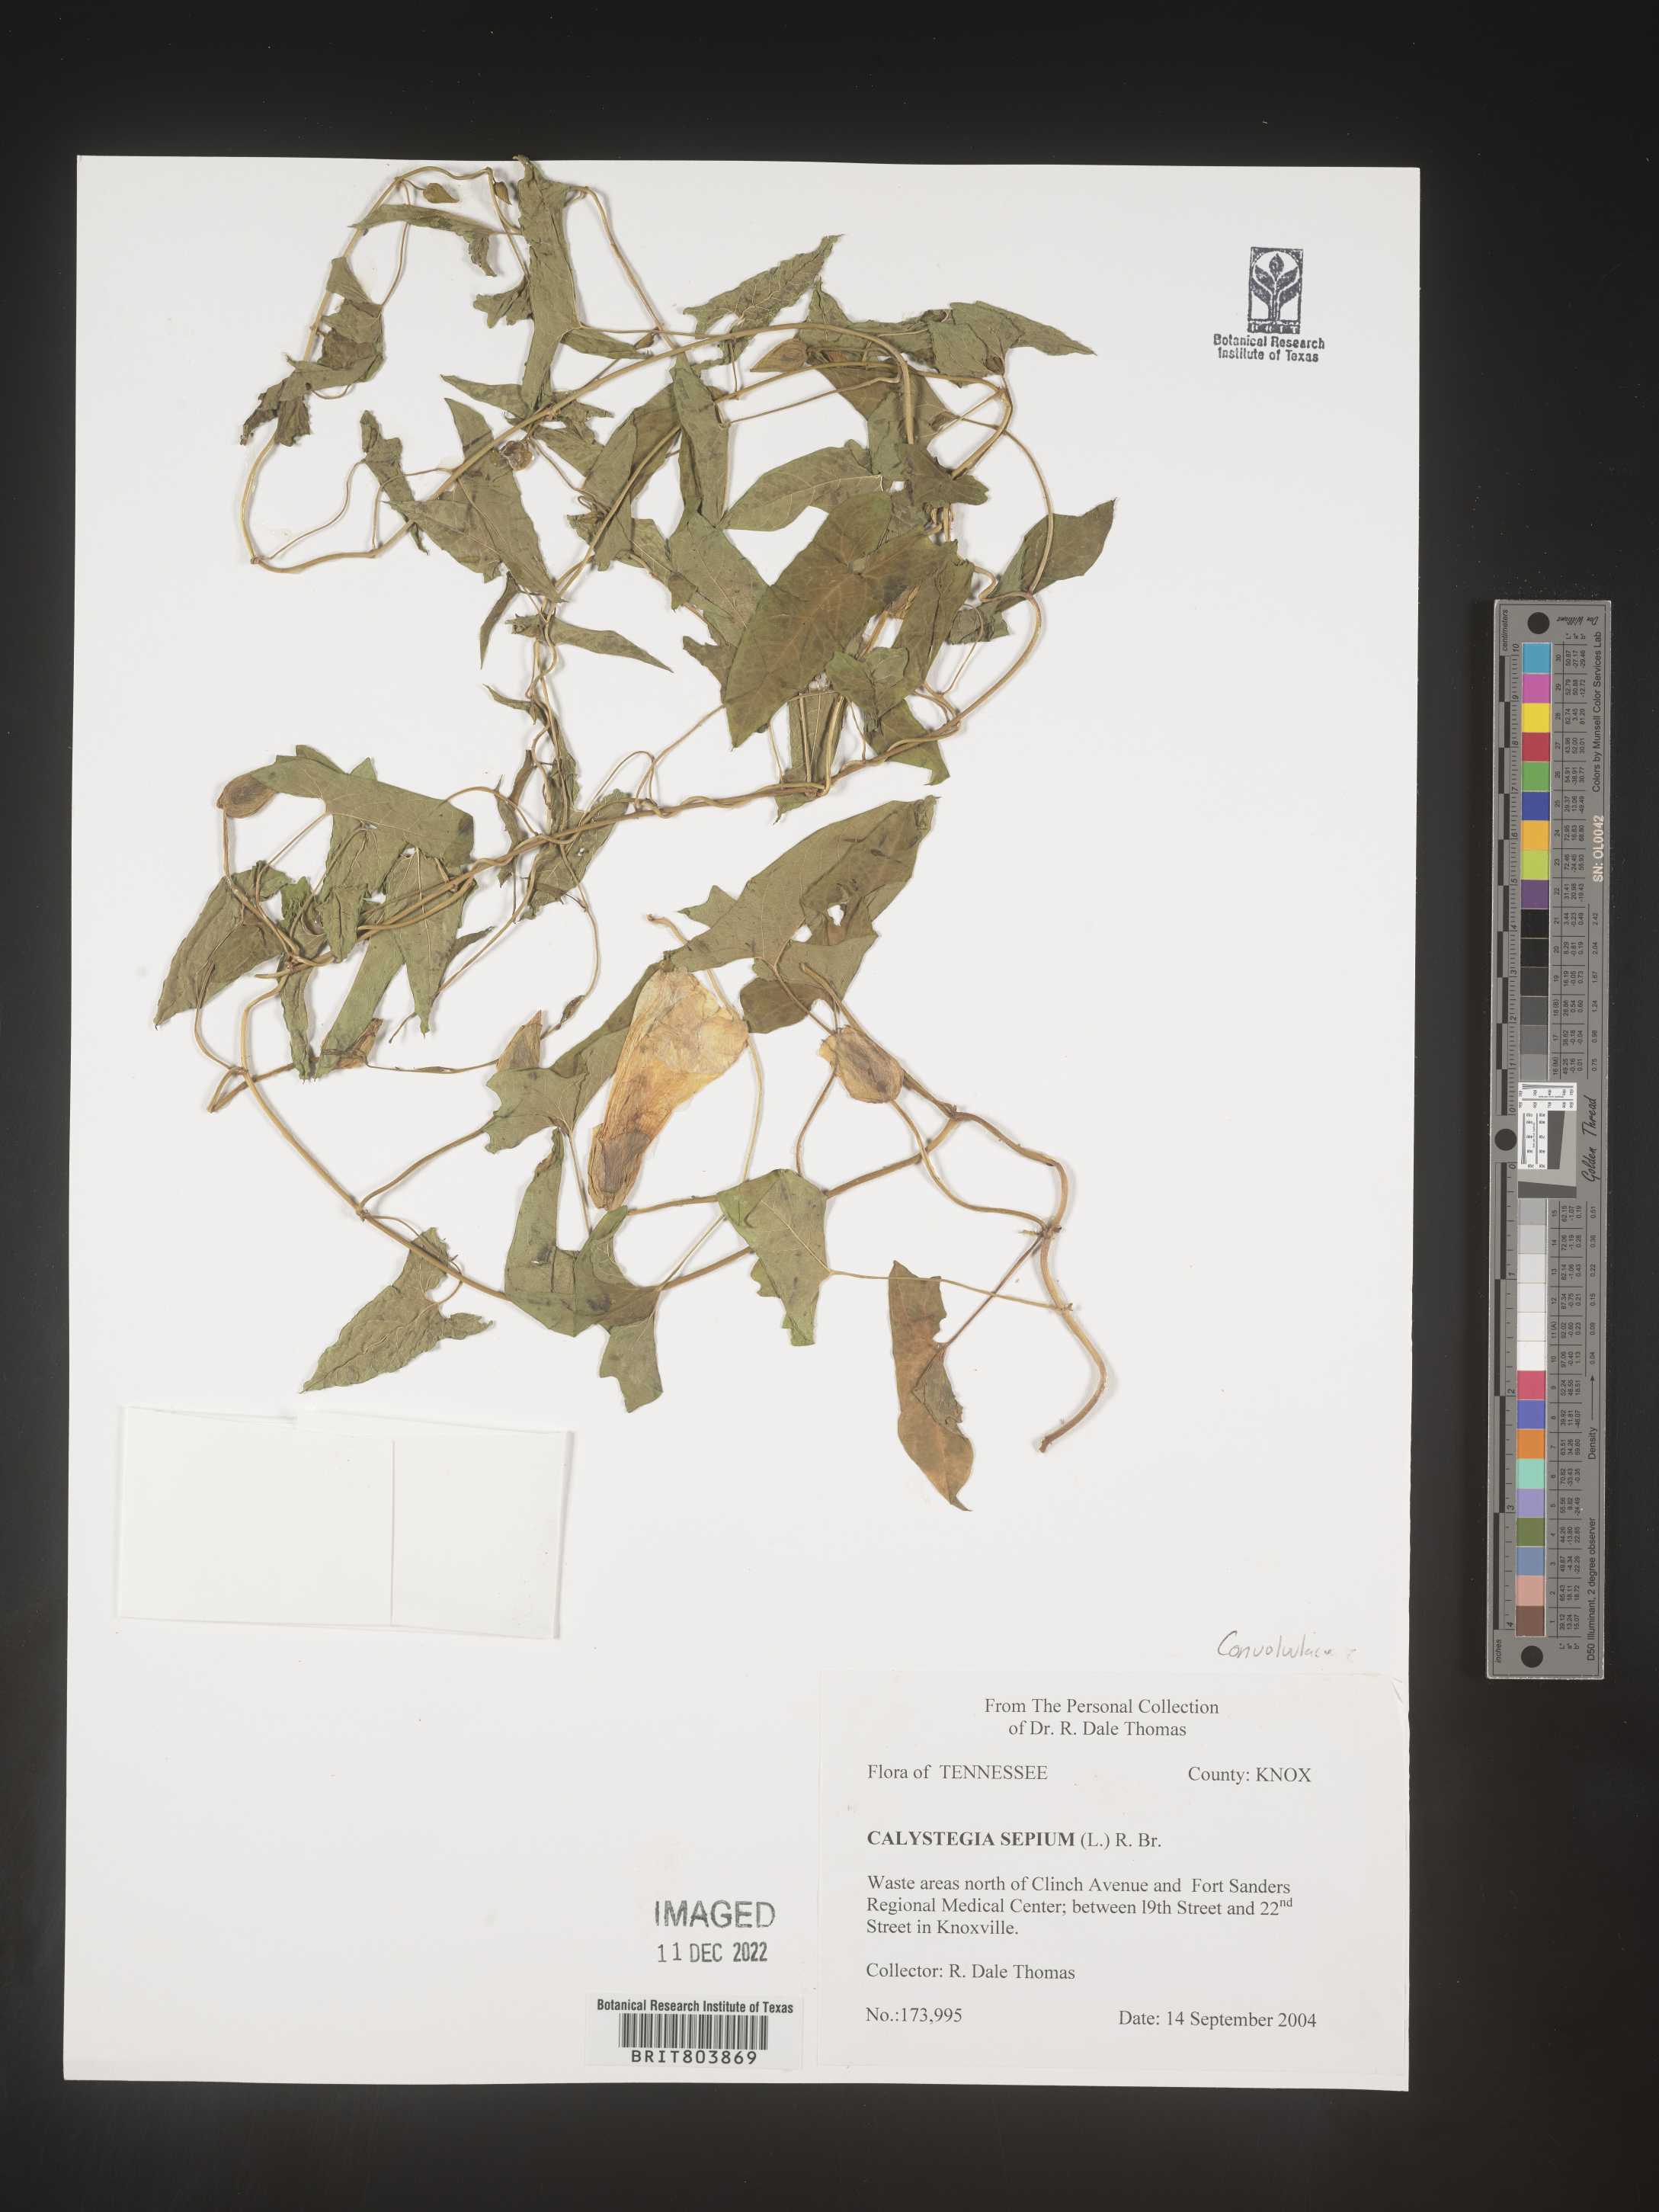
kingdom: Plantae
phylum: Tracheophyta
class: Magnoliopsida
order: Solanales
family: Convolvulaceae
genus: Calystegia
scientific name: Calystegia sepium
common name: Hedge bindweed
